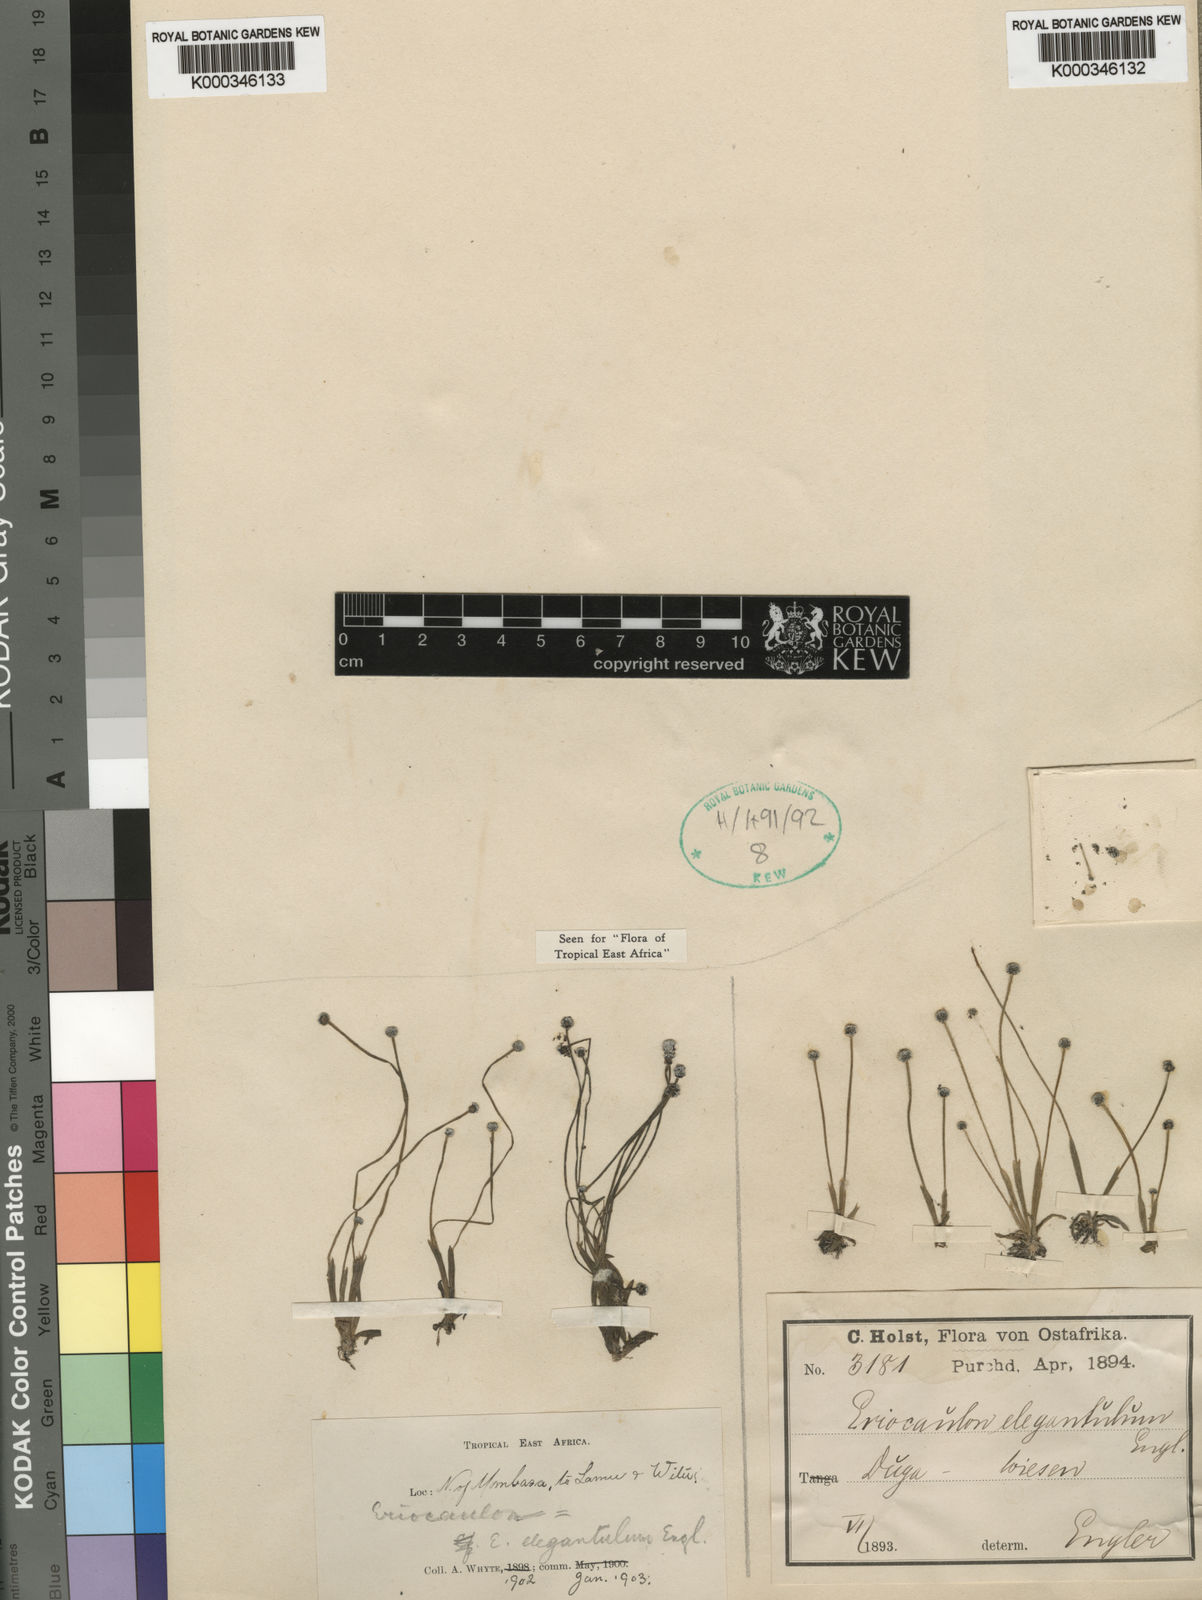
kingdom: Plantae
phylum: Tracheophyta
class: Liliopsida
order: Poales
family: Eriocaulaceae
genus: Eriocaulon
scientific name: Eriocaulon elegantulum
